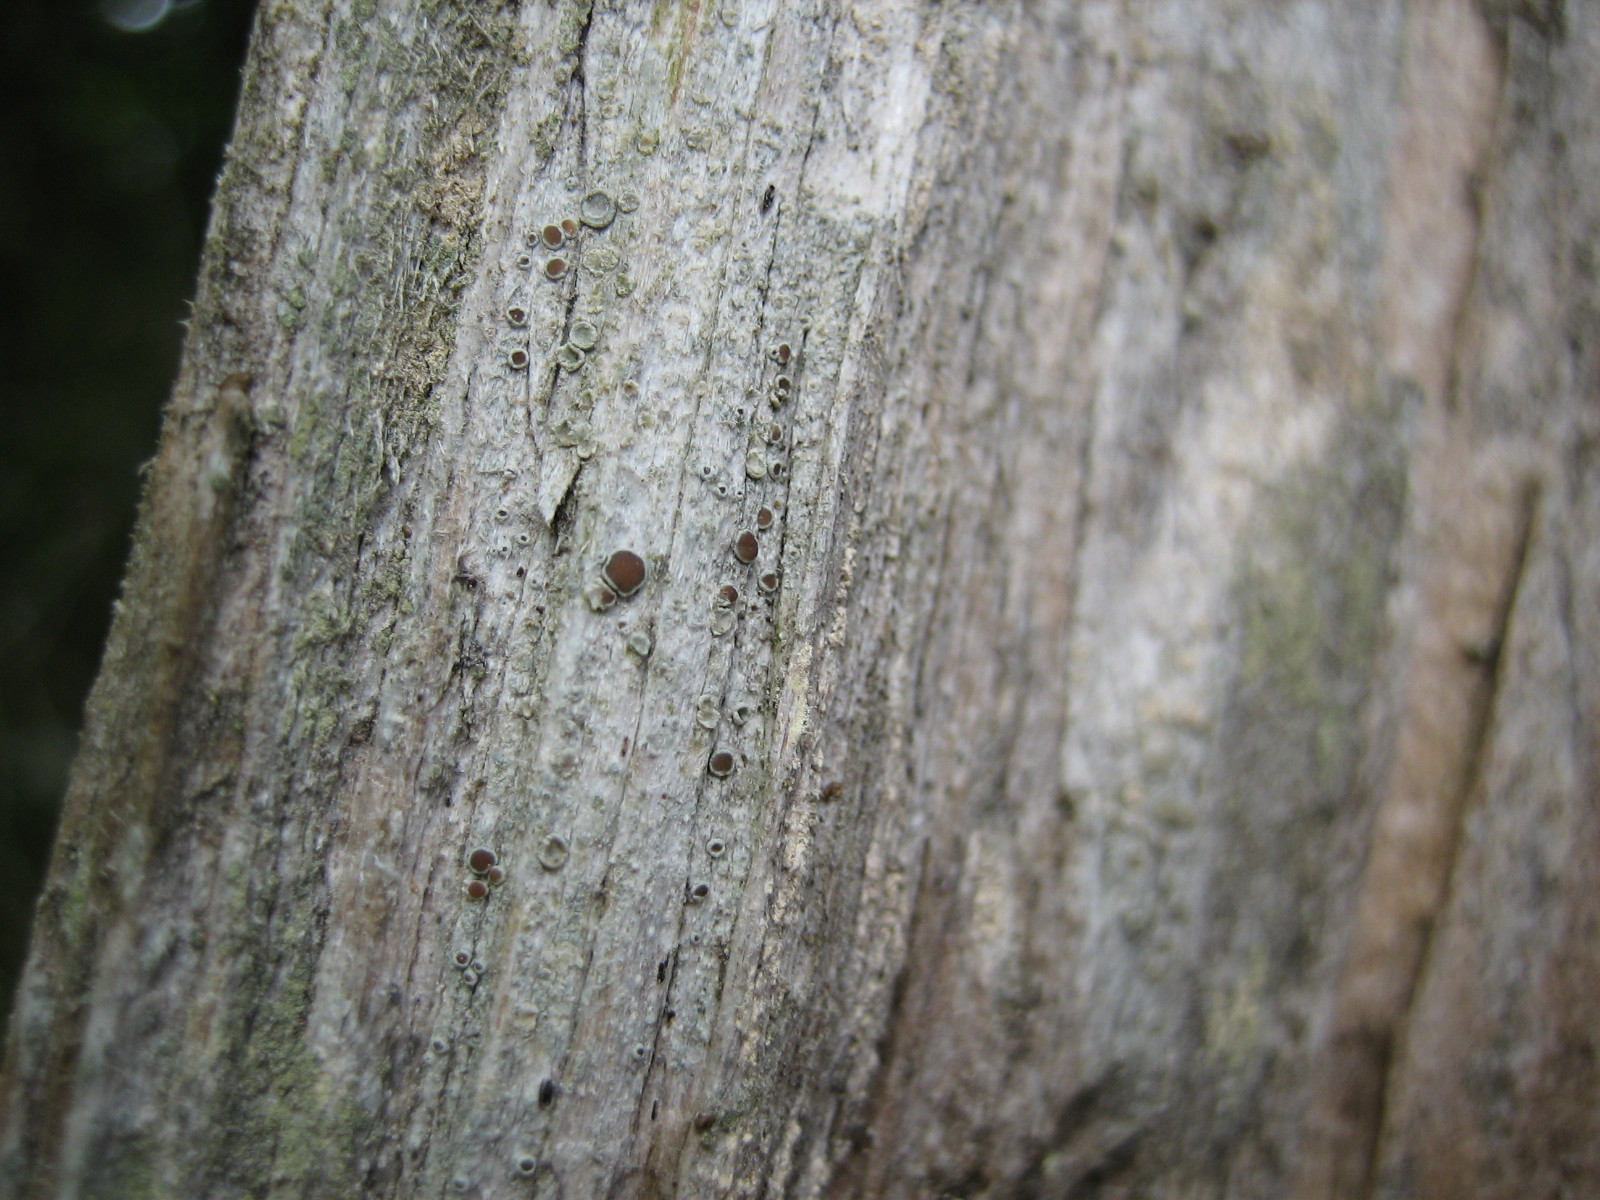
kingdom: Fungi
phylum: Ascomycota
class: Lecanoromycetes
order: Lecanorales
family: Lecanoraceae
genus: Lecanora
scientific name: Lecanora pulicaris
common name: almindelig kantskivelav
